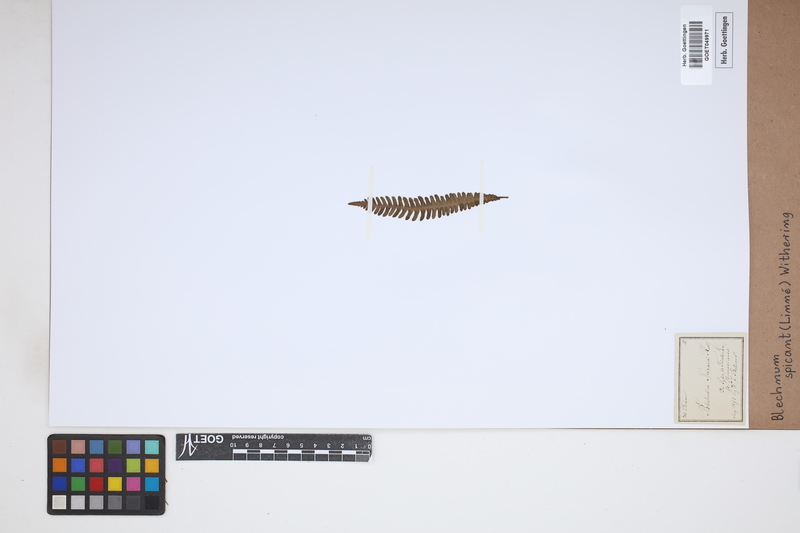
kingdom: Plantae
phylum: Tracheophyta
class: Polypodiopsida
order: Polypodiales
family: Blechnaceae
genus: Struthiopteris
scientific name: Struthiopteris spicant
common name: Deer fern
